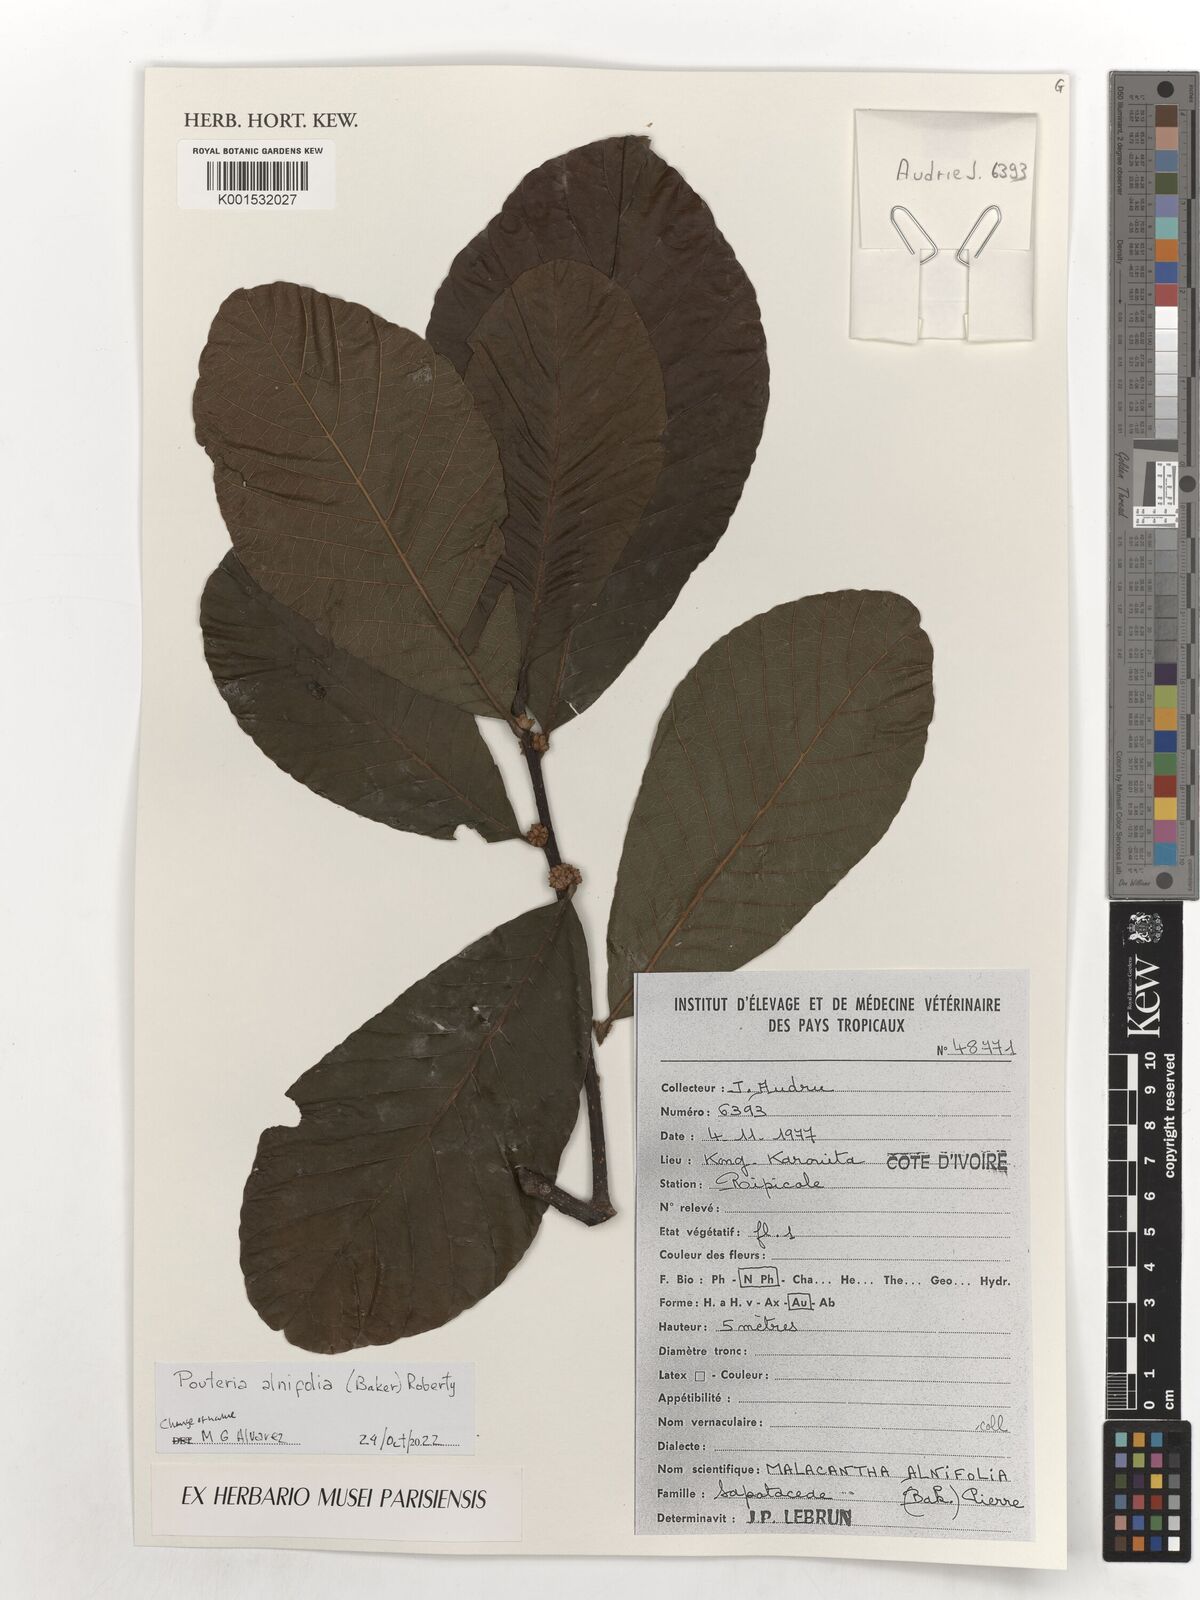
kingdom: Plantae
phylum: Tracheophyta
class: Magnoliopsida
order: Ericales
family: Sapotaceae
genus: Malacantha
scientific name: Malacantha alnifolia
